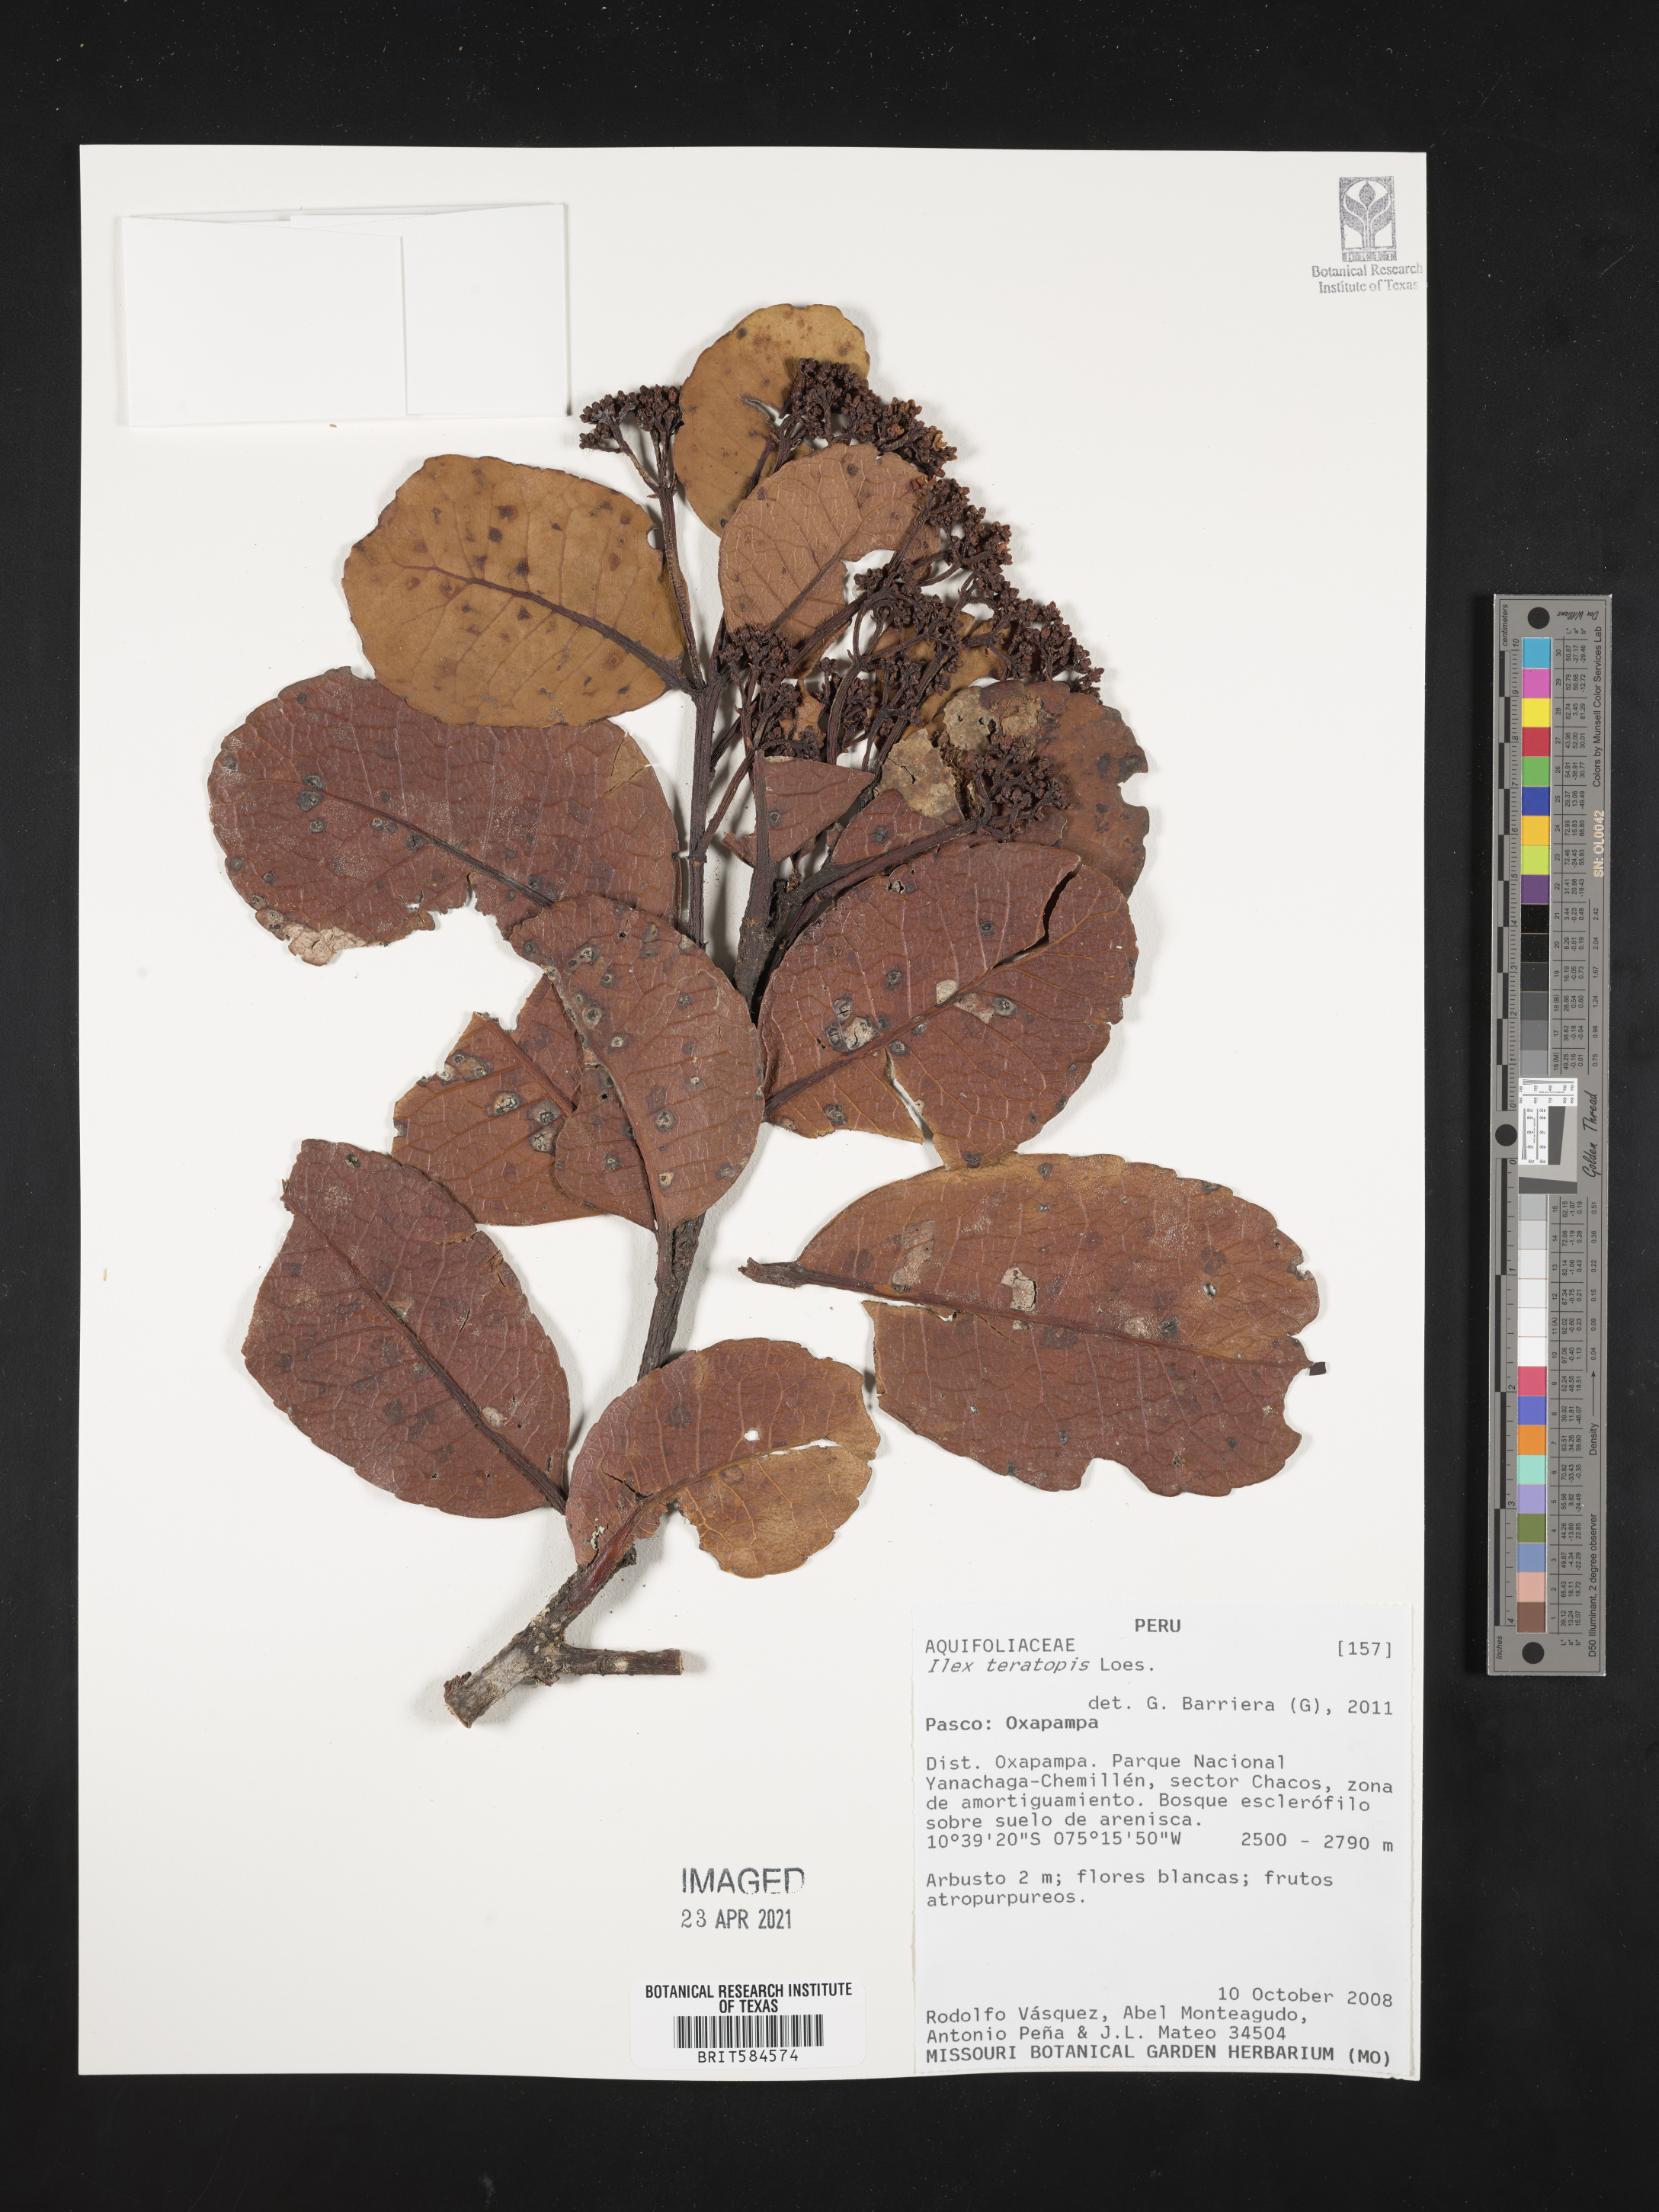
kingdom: Plantae
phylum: Tracheophyta
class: Magnoliopsida
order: Aquifoliales
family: Aquifoliaceae
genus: Ilex
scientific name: Ilex teratopis
